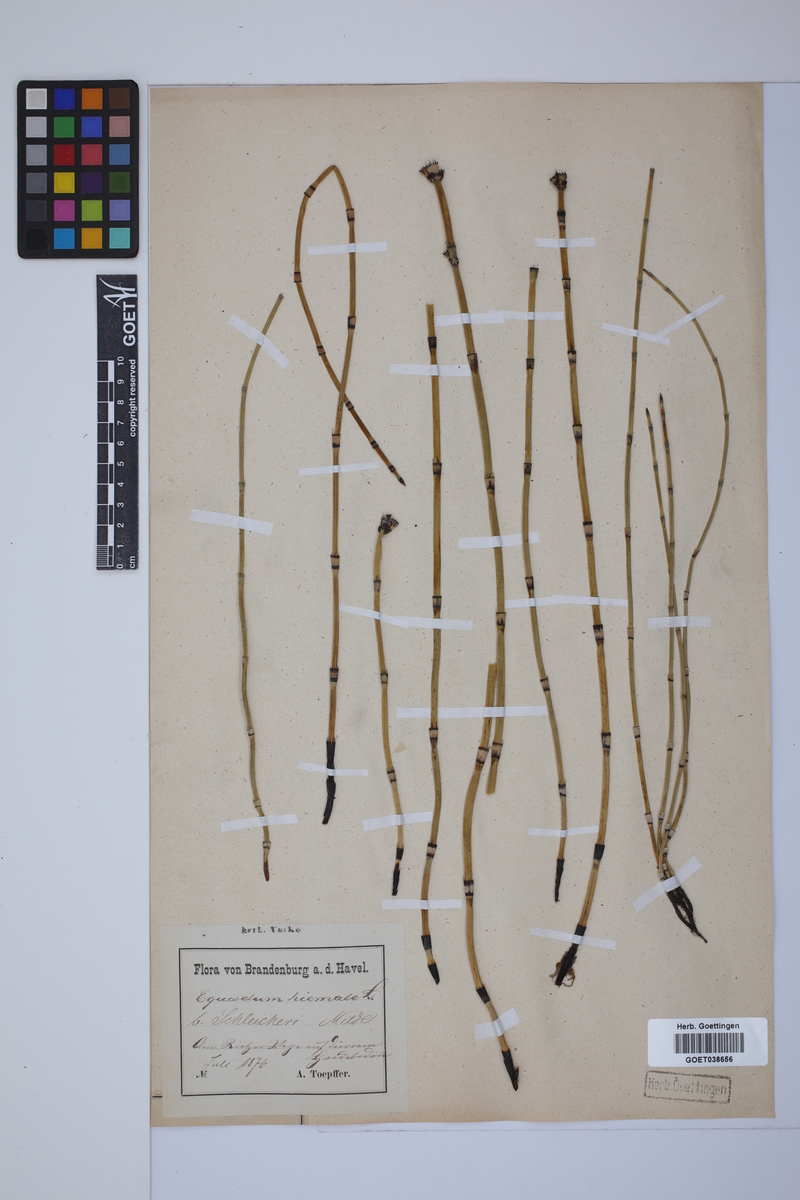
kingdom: Plantae
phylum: Tracheophyta
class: Polypodiopsida
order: Equisetales
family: Equisetaceae
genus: Equisetum
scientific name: Equisetum hyemale
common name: Rough horsetail
